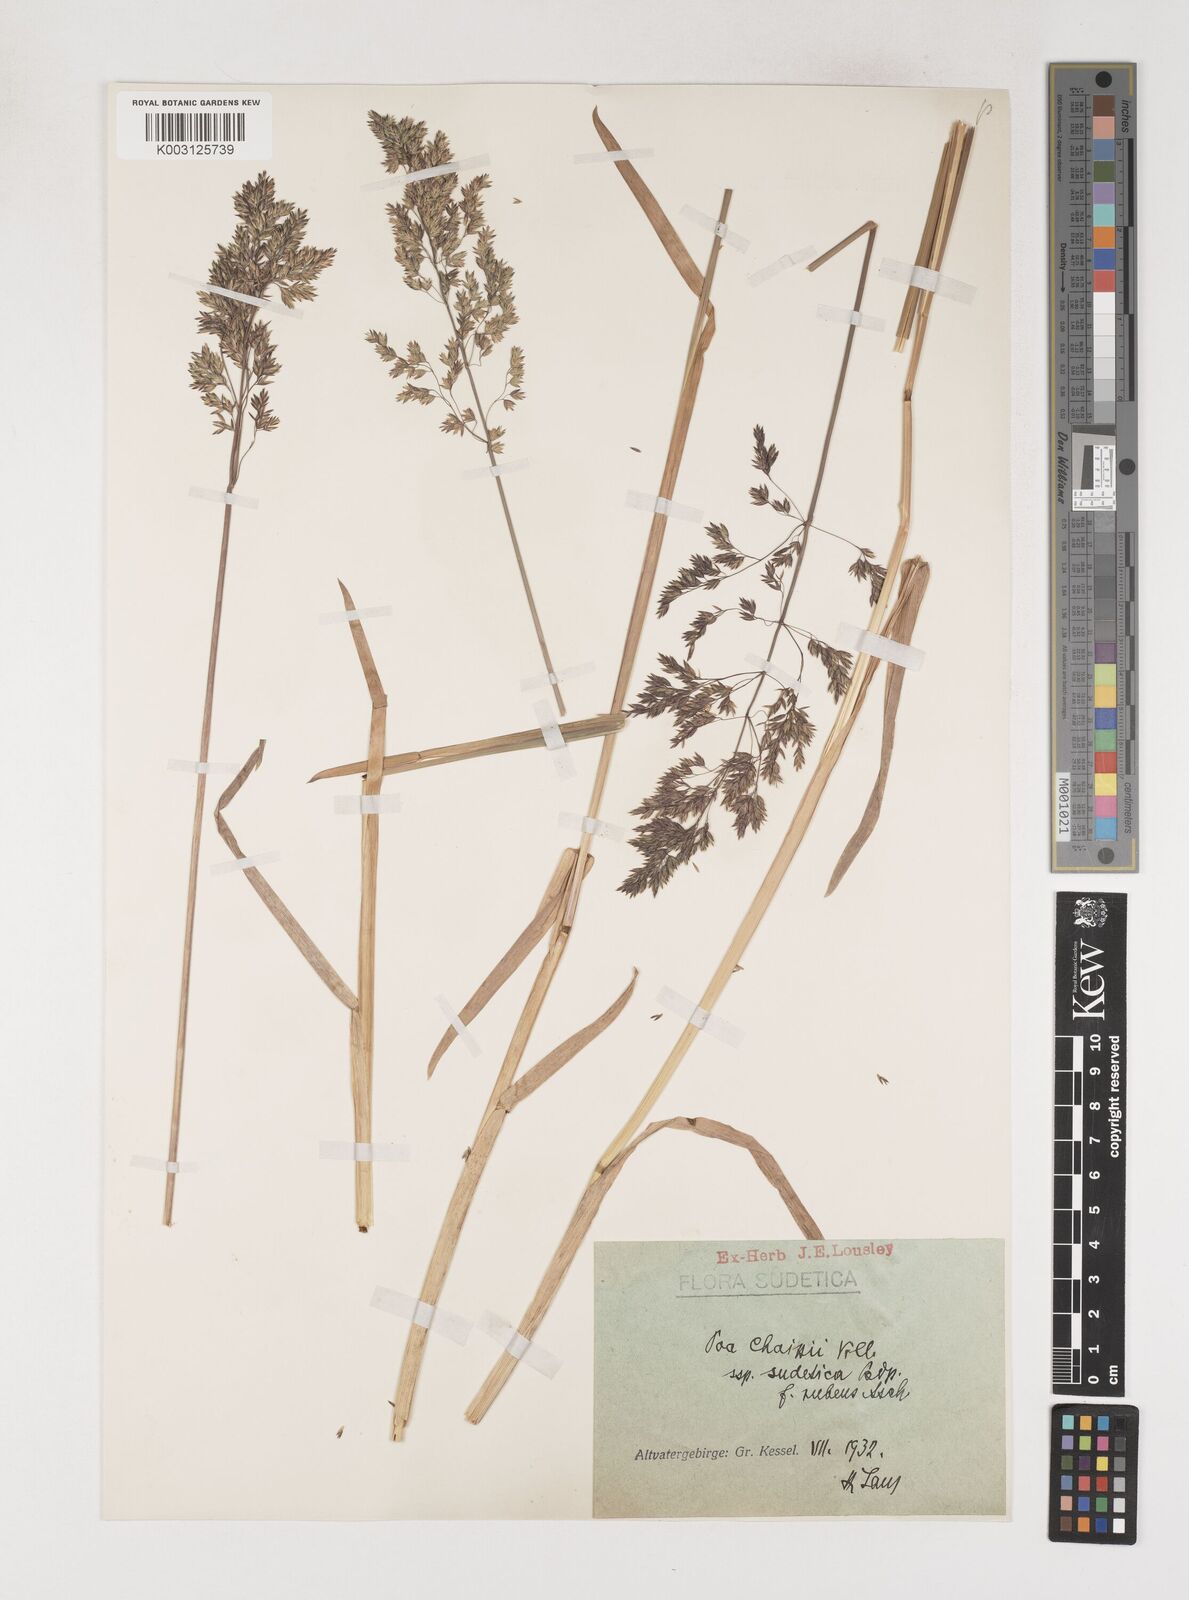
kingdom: Plantae
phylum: Tracheophyta
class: Liliopsida
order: Poales
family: Poaceae
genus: Poa
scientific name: Poa chaixii
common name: Broad-leaved meadow-grass
